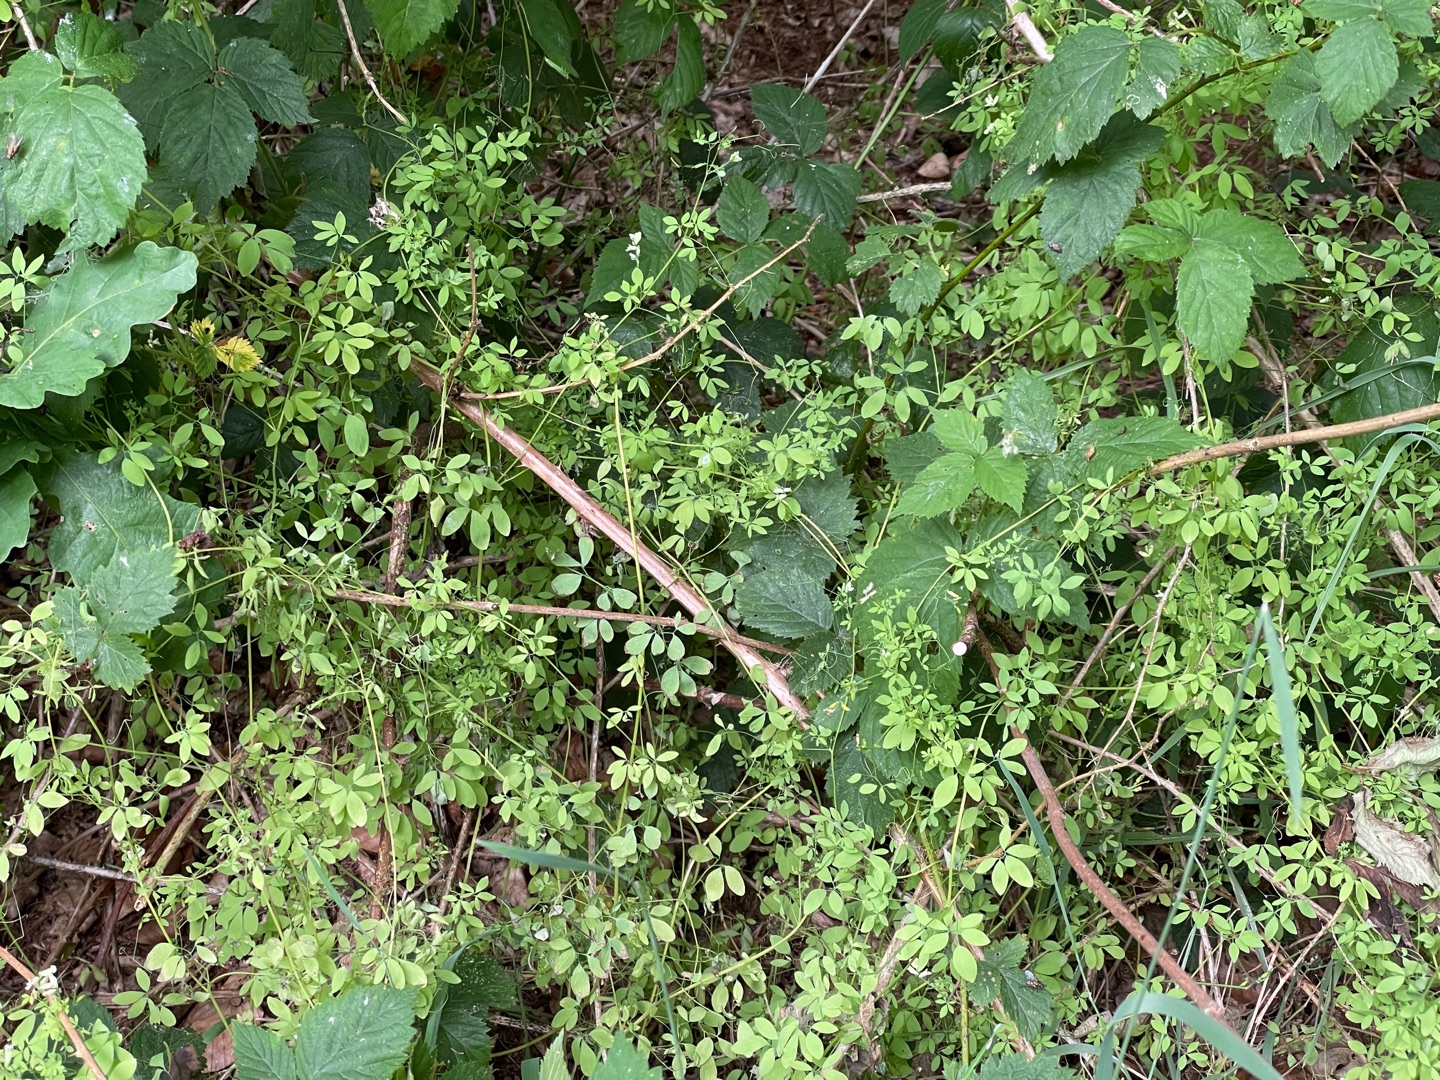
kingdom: Plantae
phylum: Tracheophyta
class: Magnoliopsida
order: Ranunculales
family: Papaveraceae
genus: Ceratocapnos
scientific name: Ceratocapnos claviculata
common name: Klatrende lærkespore
